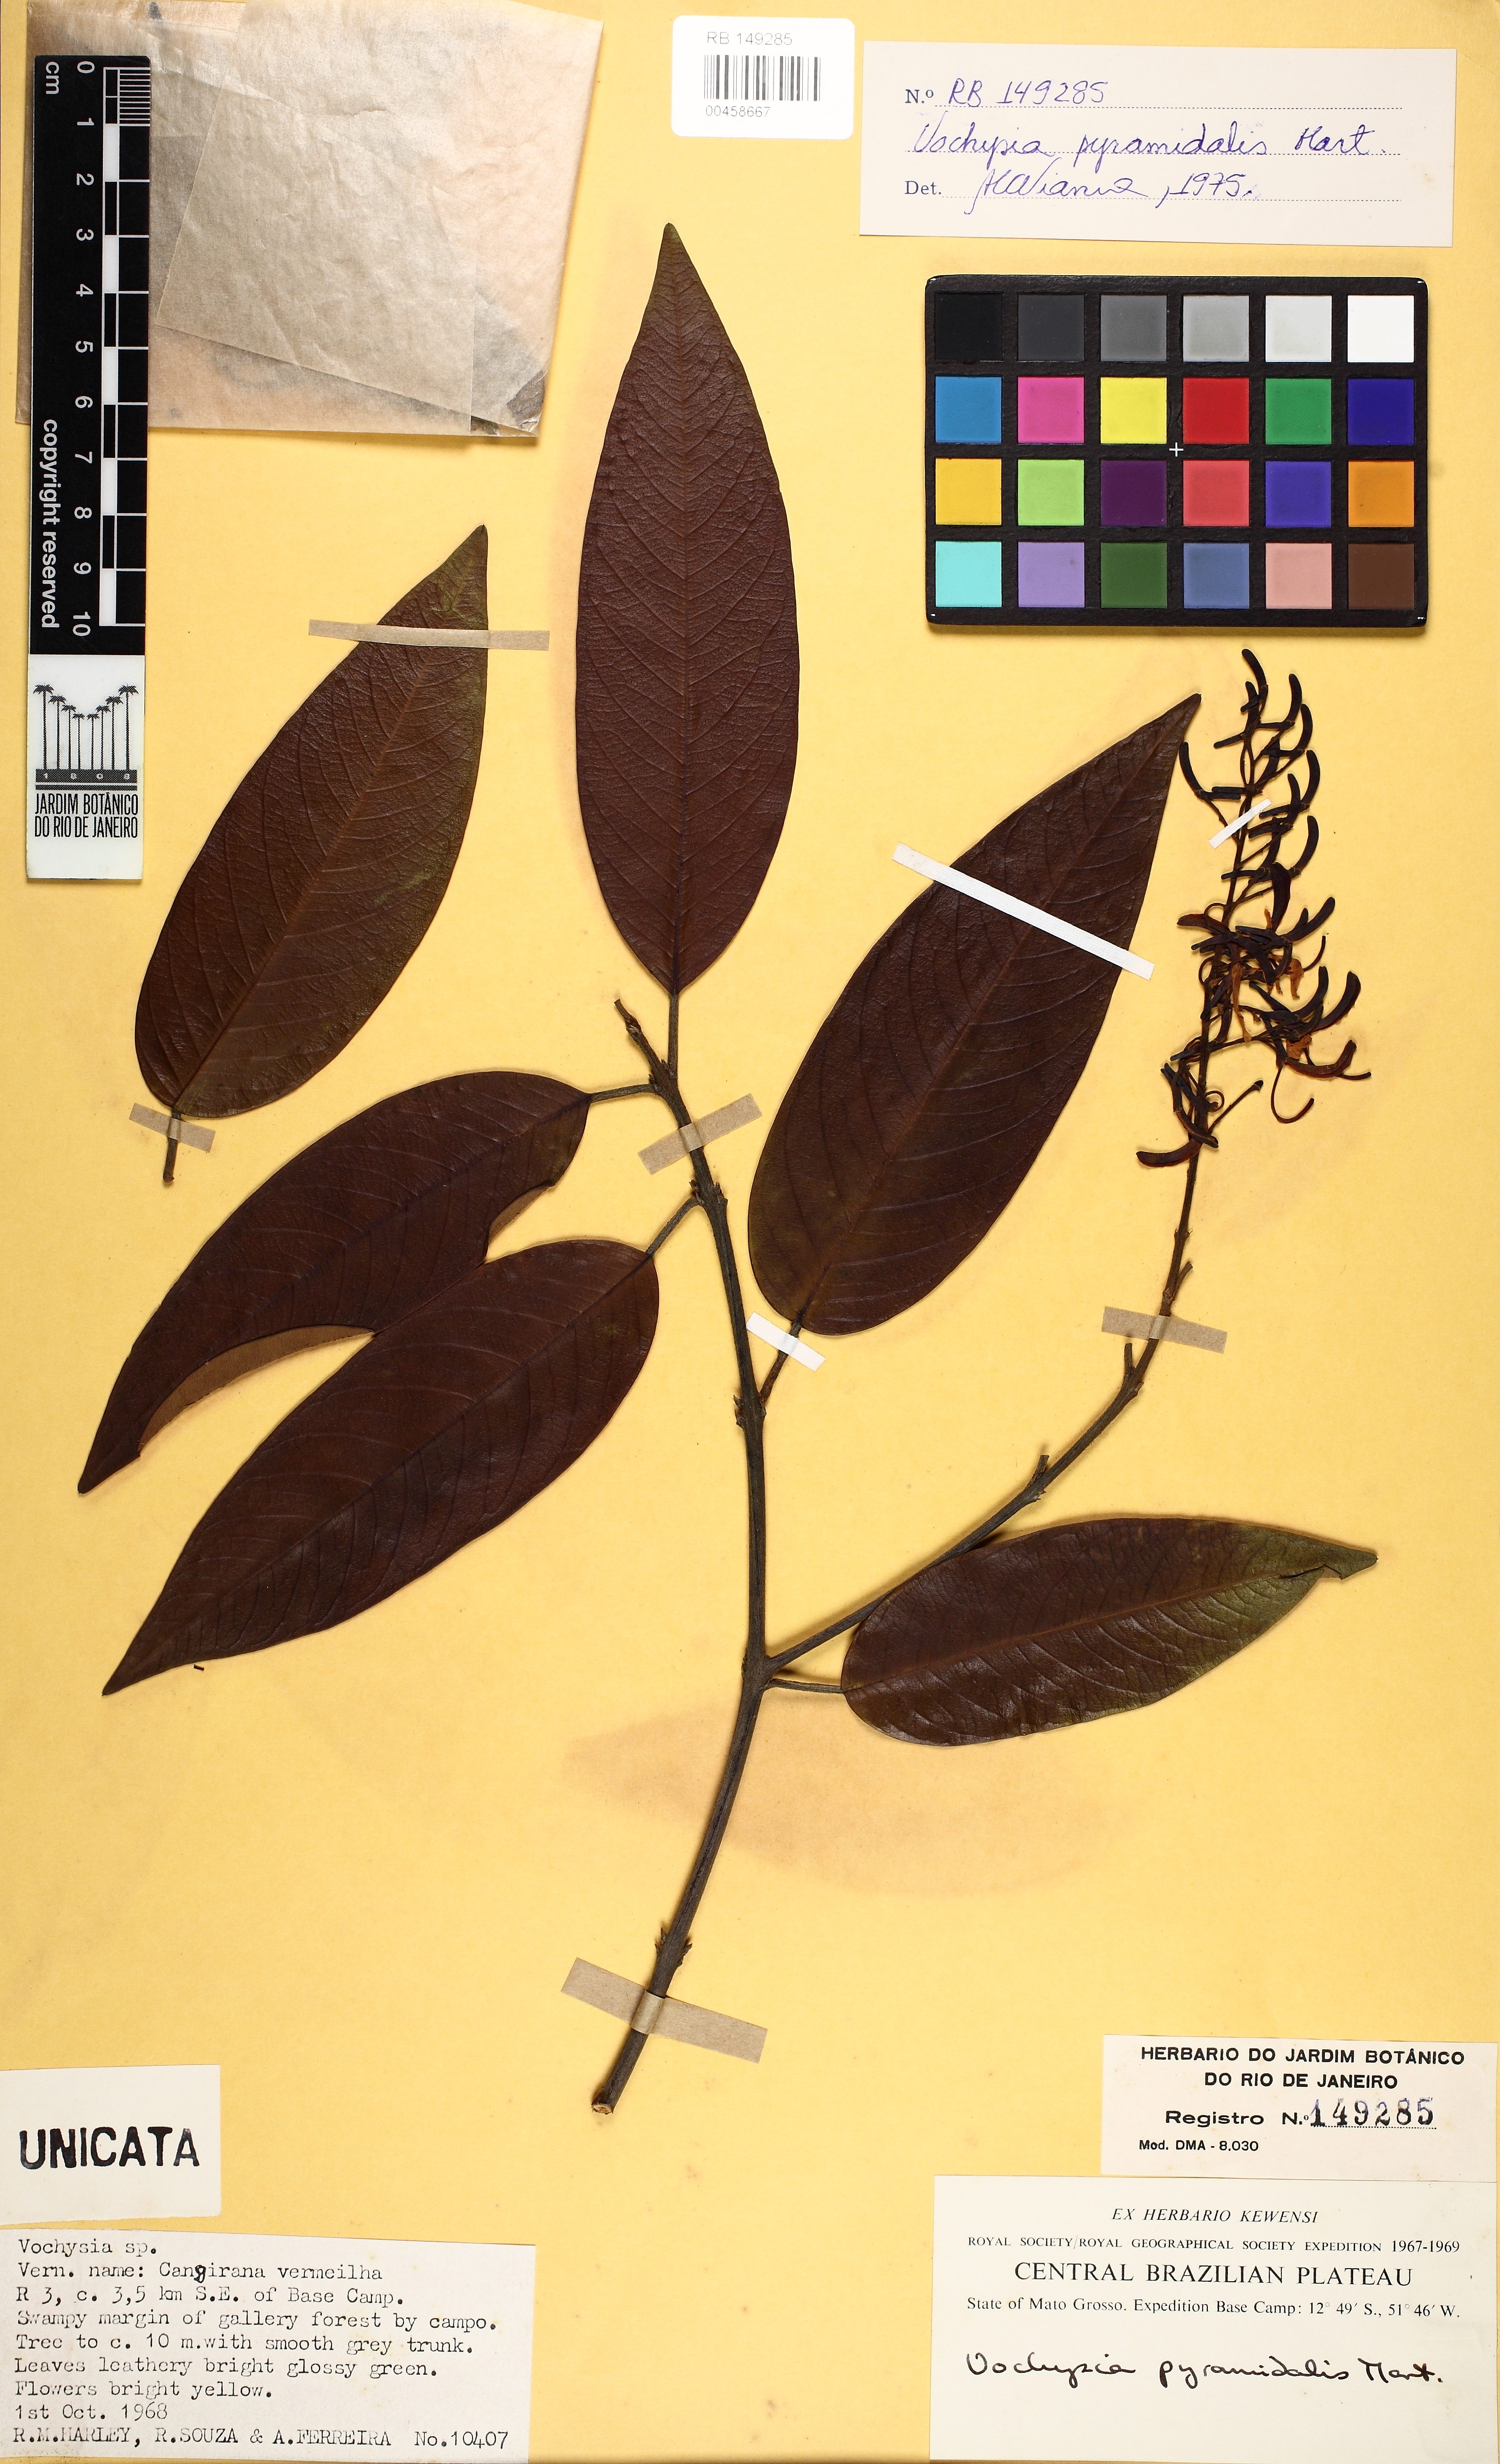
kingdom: Plantae
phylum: Tracheophyta
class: Magnoliopsida
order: Myrtales
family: Vochysiaceae
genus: Vochysia
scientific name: Vochysia pyramidalis
